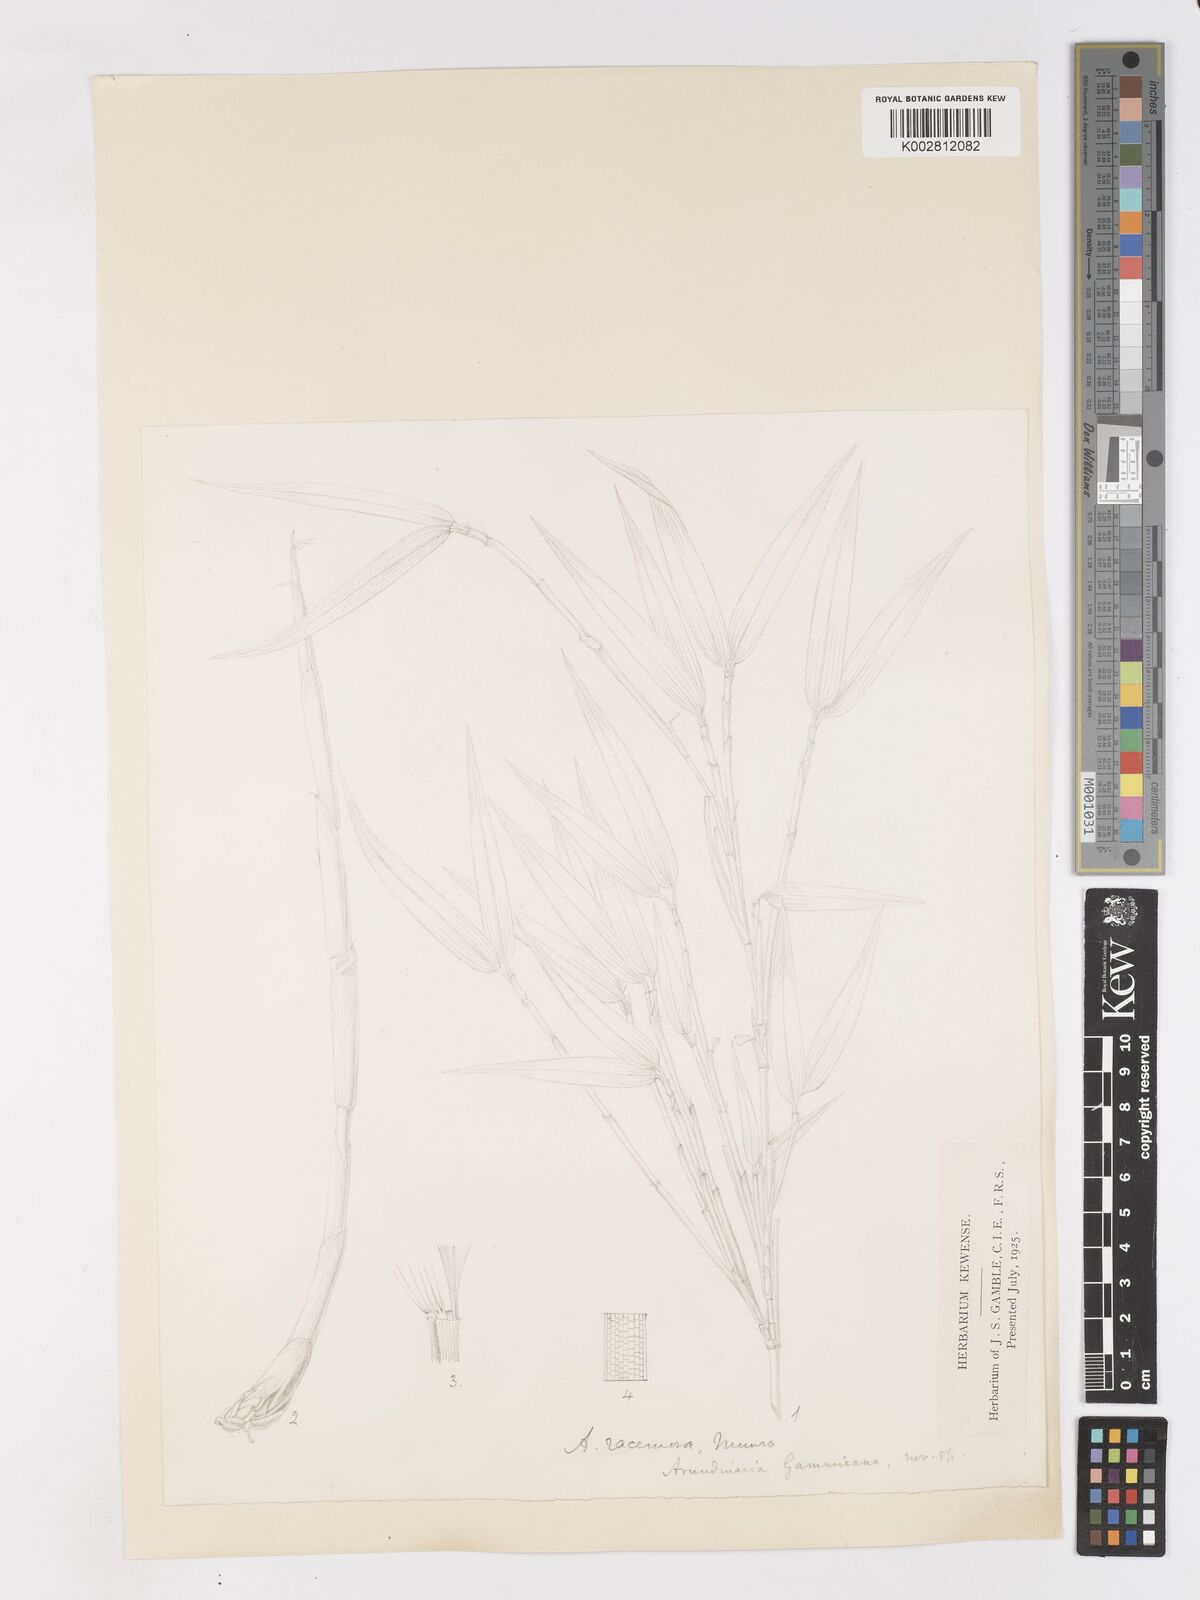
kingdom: Plantae
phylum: Tracheophyta
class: Liliopsida
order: Poales
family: Poaceae
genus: Sarocalamus
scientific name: Sarocalamus racemosus
